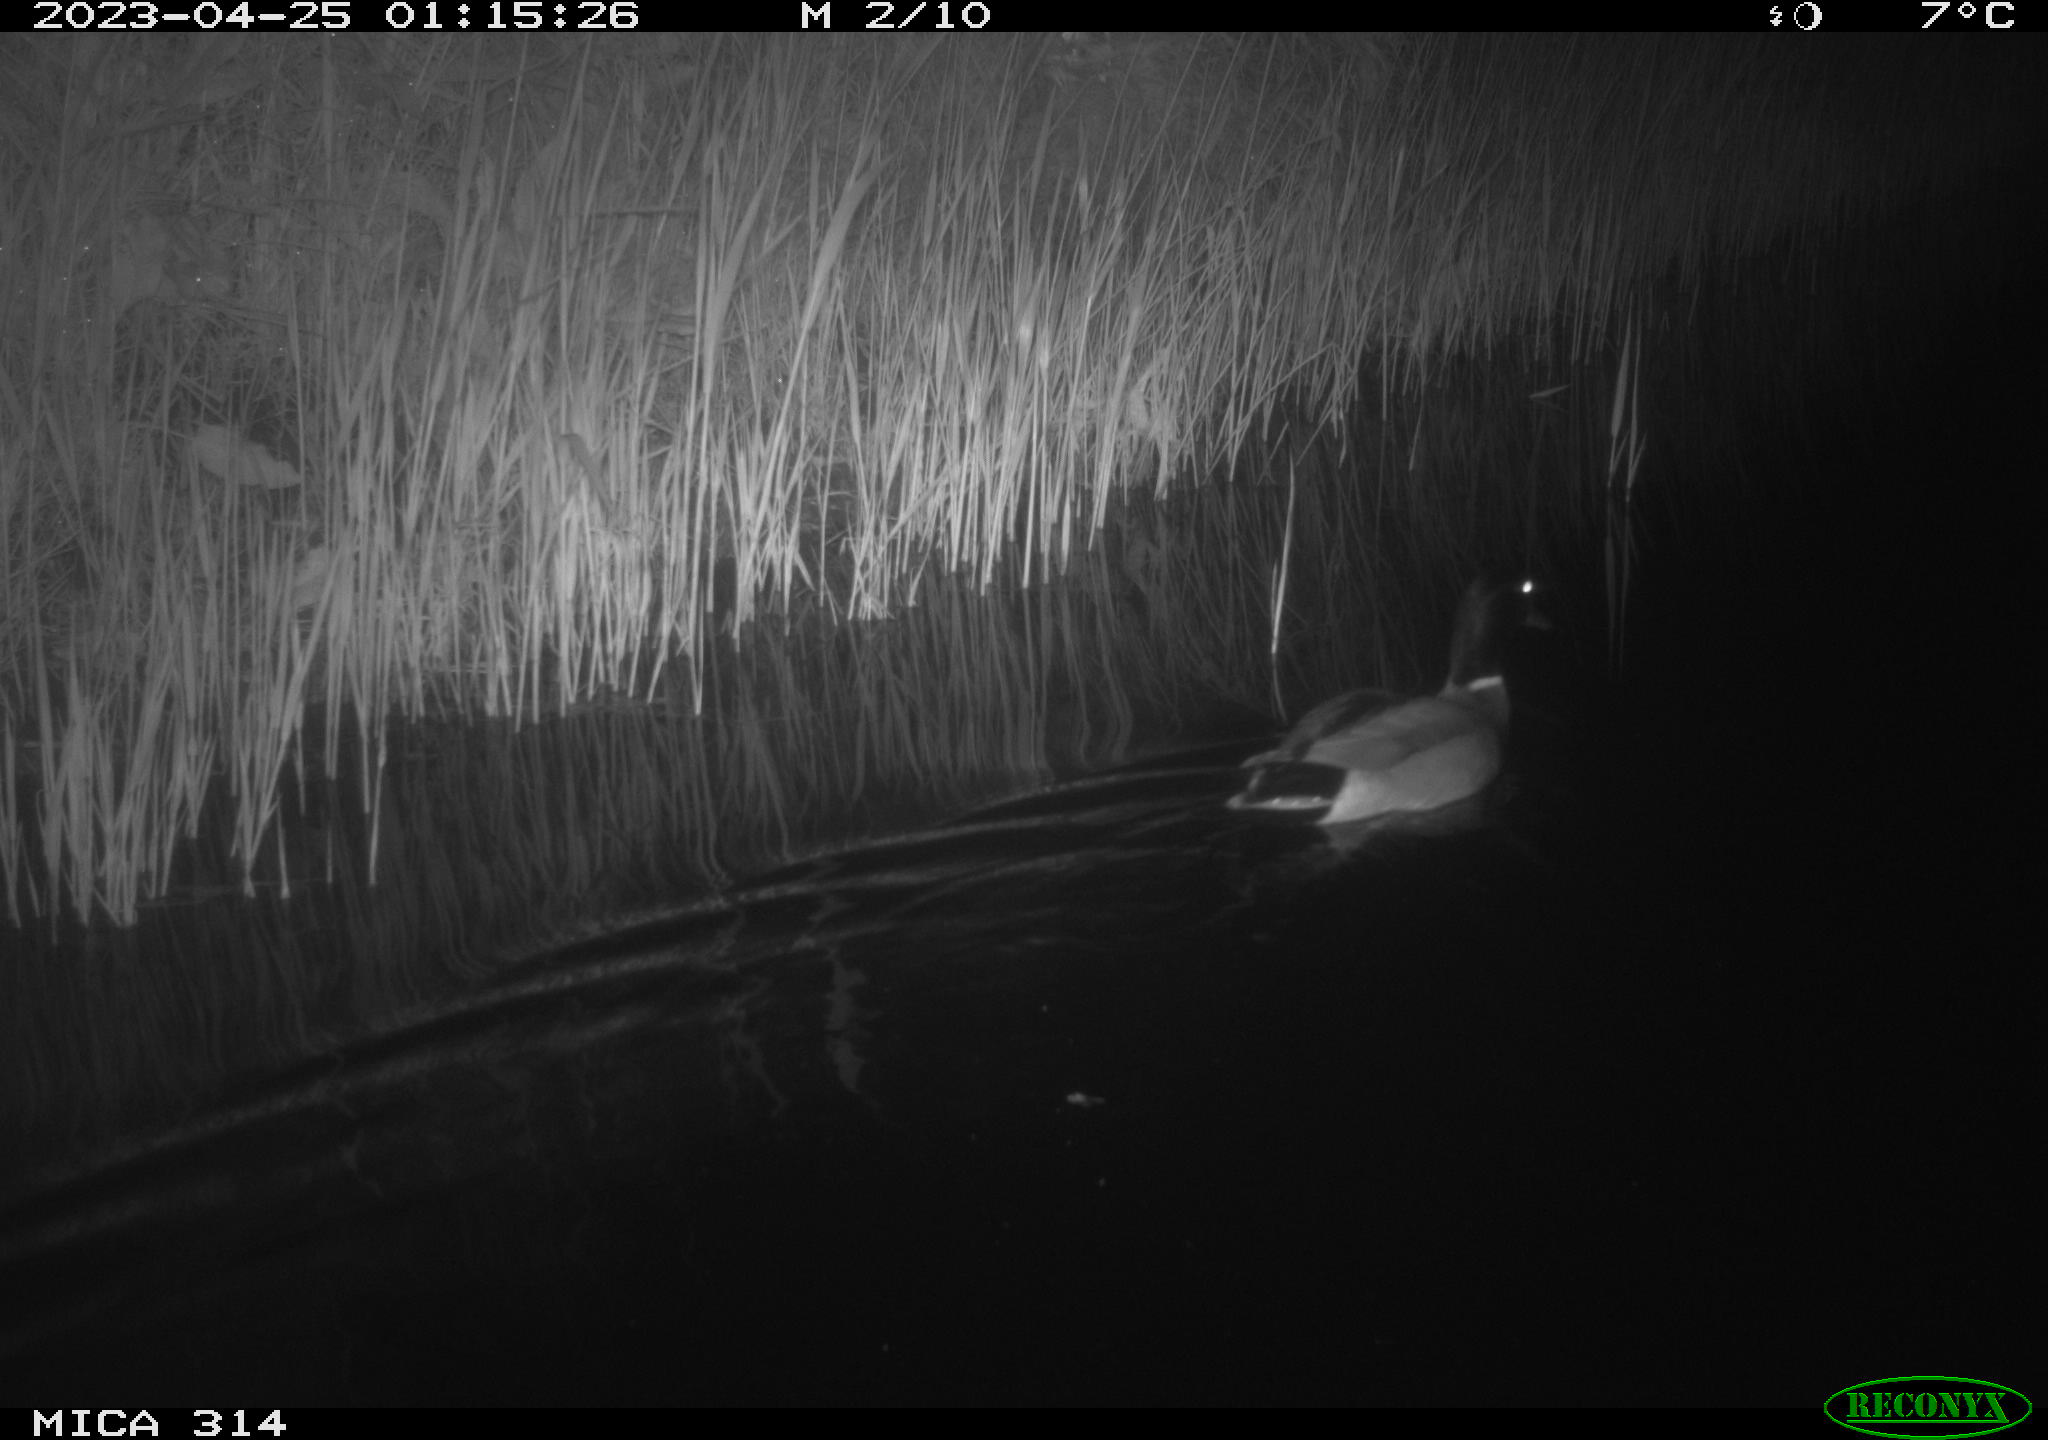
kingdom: Animalia
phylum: Chordata
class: Aves
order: Anseriformes
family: Anatidae
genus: Anas
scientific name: Anas
